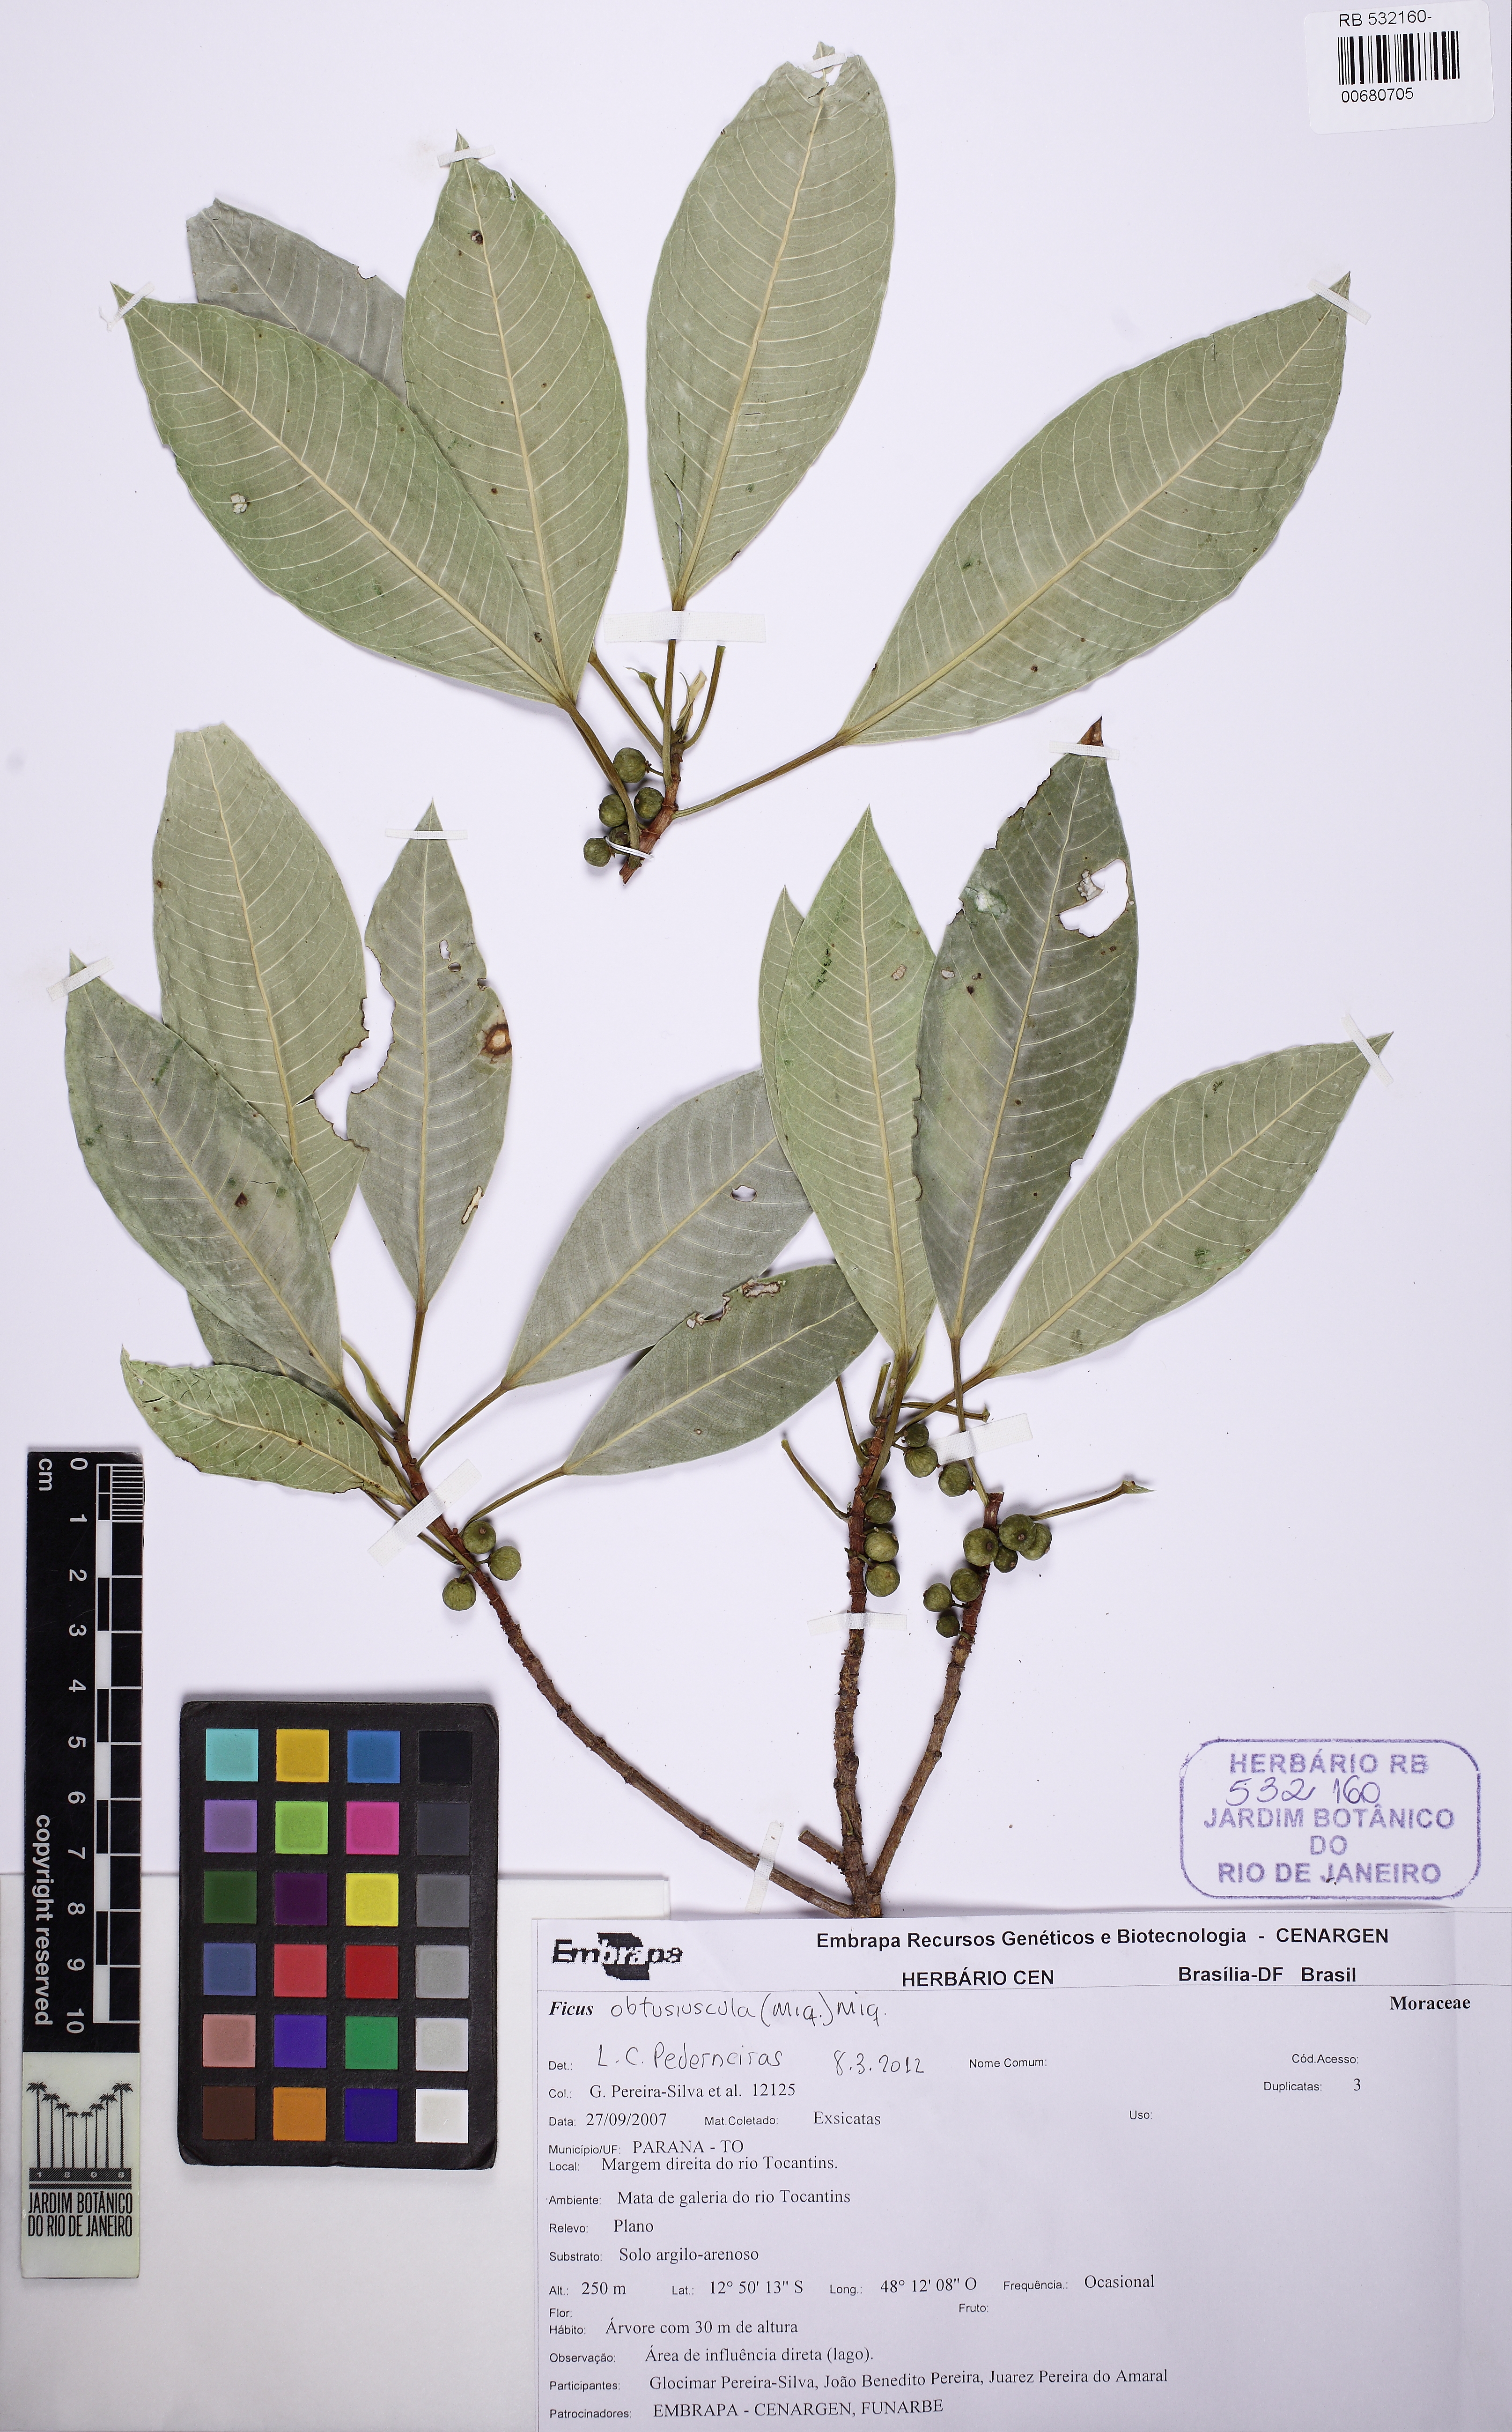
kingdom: Plantae
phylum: Tracheophyta
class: Magnoliopsida
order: Rosales
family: Moraceae
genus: Ficus
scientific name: Ficus obtusiuscula
